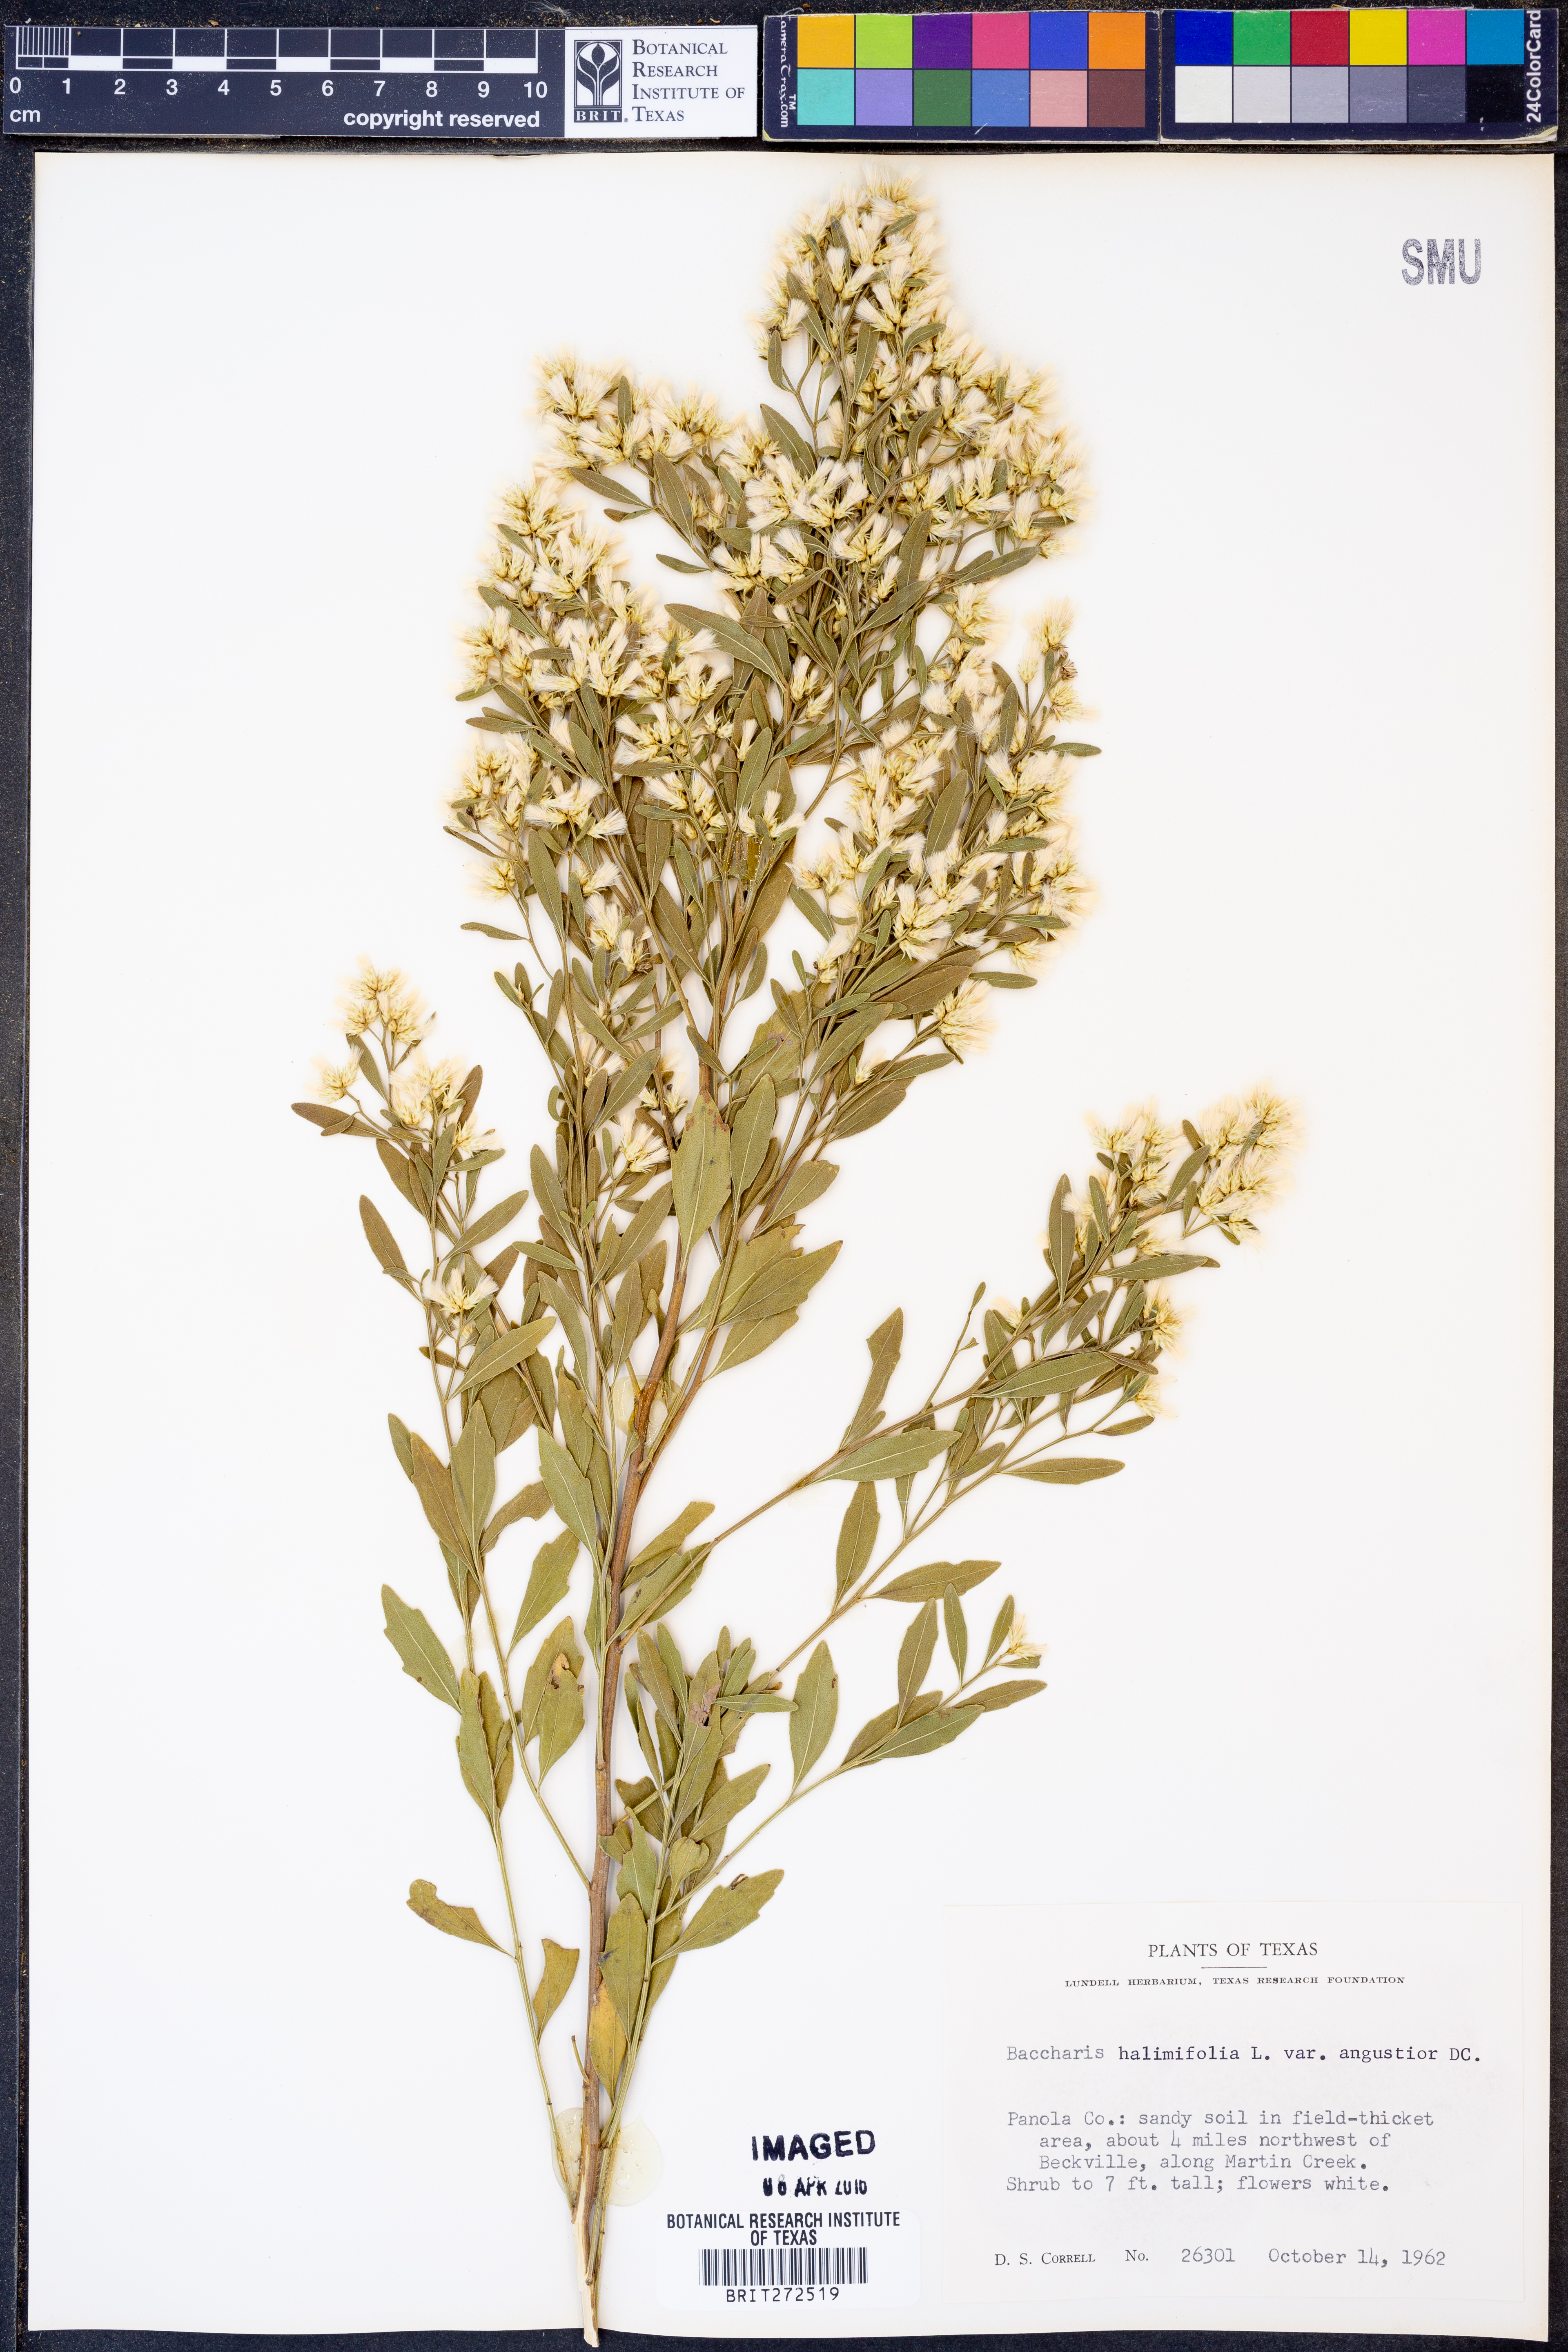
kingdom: Plantae
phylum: Tracheophyta
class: Magnoliopsida
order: Asterales
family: Asteraceae
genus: Baccharis
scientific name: Baccharis halimifolia
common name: Eastern baccharis
